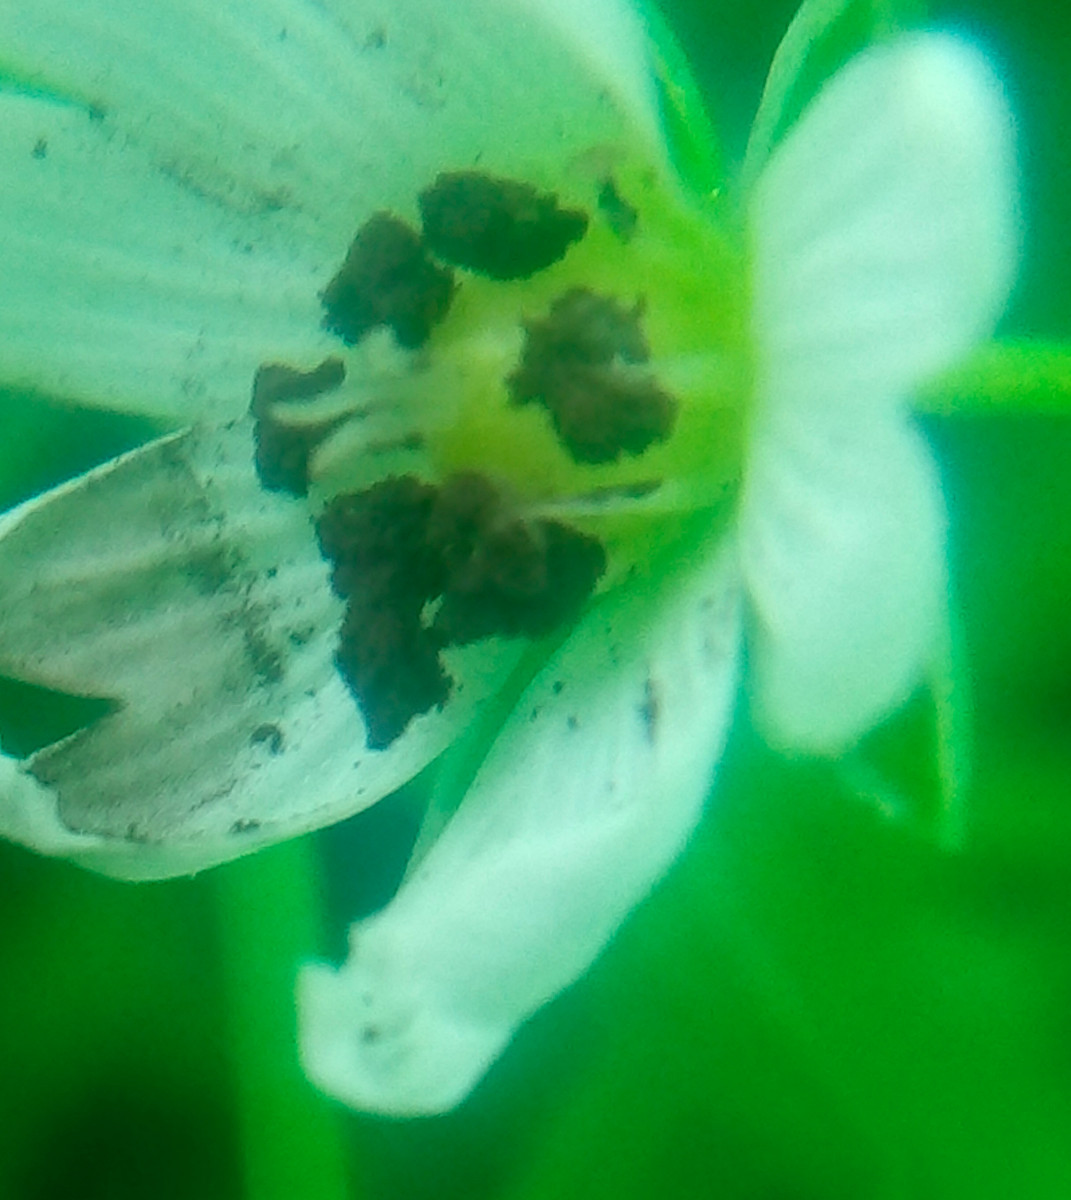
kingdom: Fungi
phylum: Basidiomycota
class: Microbotryomycetes
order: Microbotryales
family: Microbotryaceae
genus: Microbotryum
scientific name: Microbotryum stellariae
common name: fladstjerne-støvbladrust
